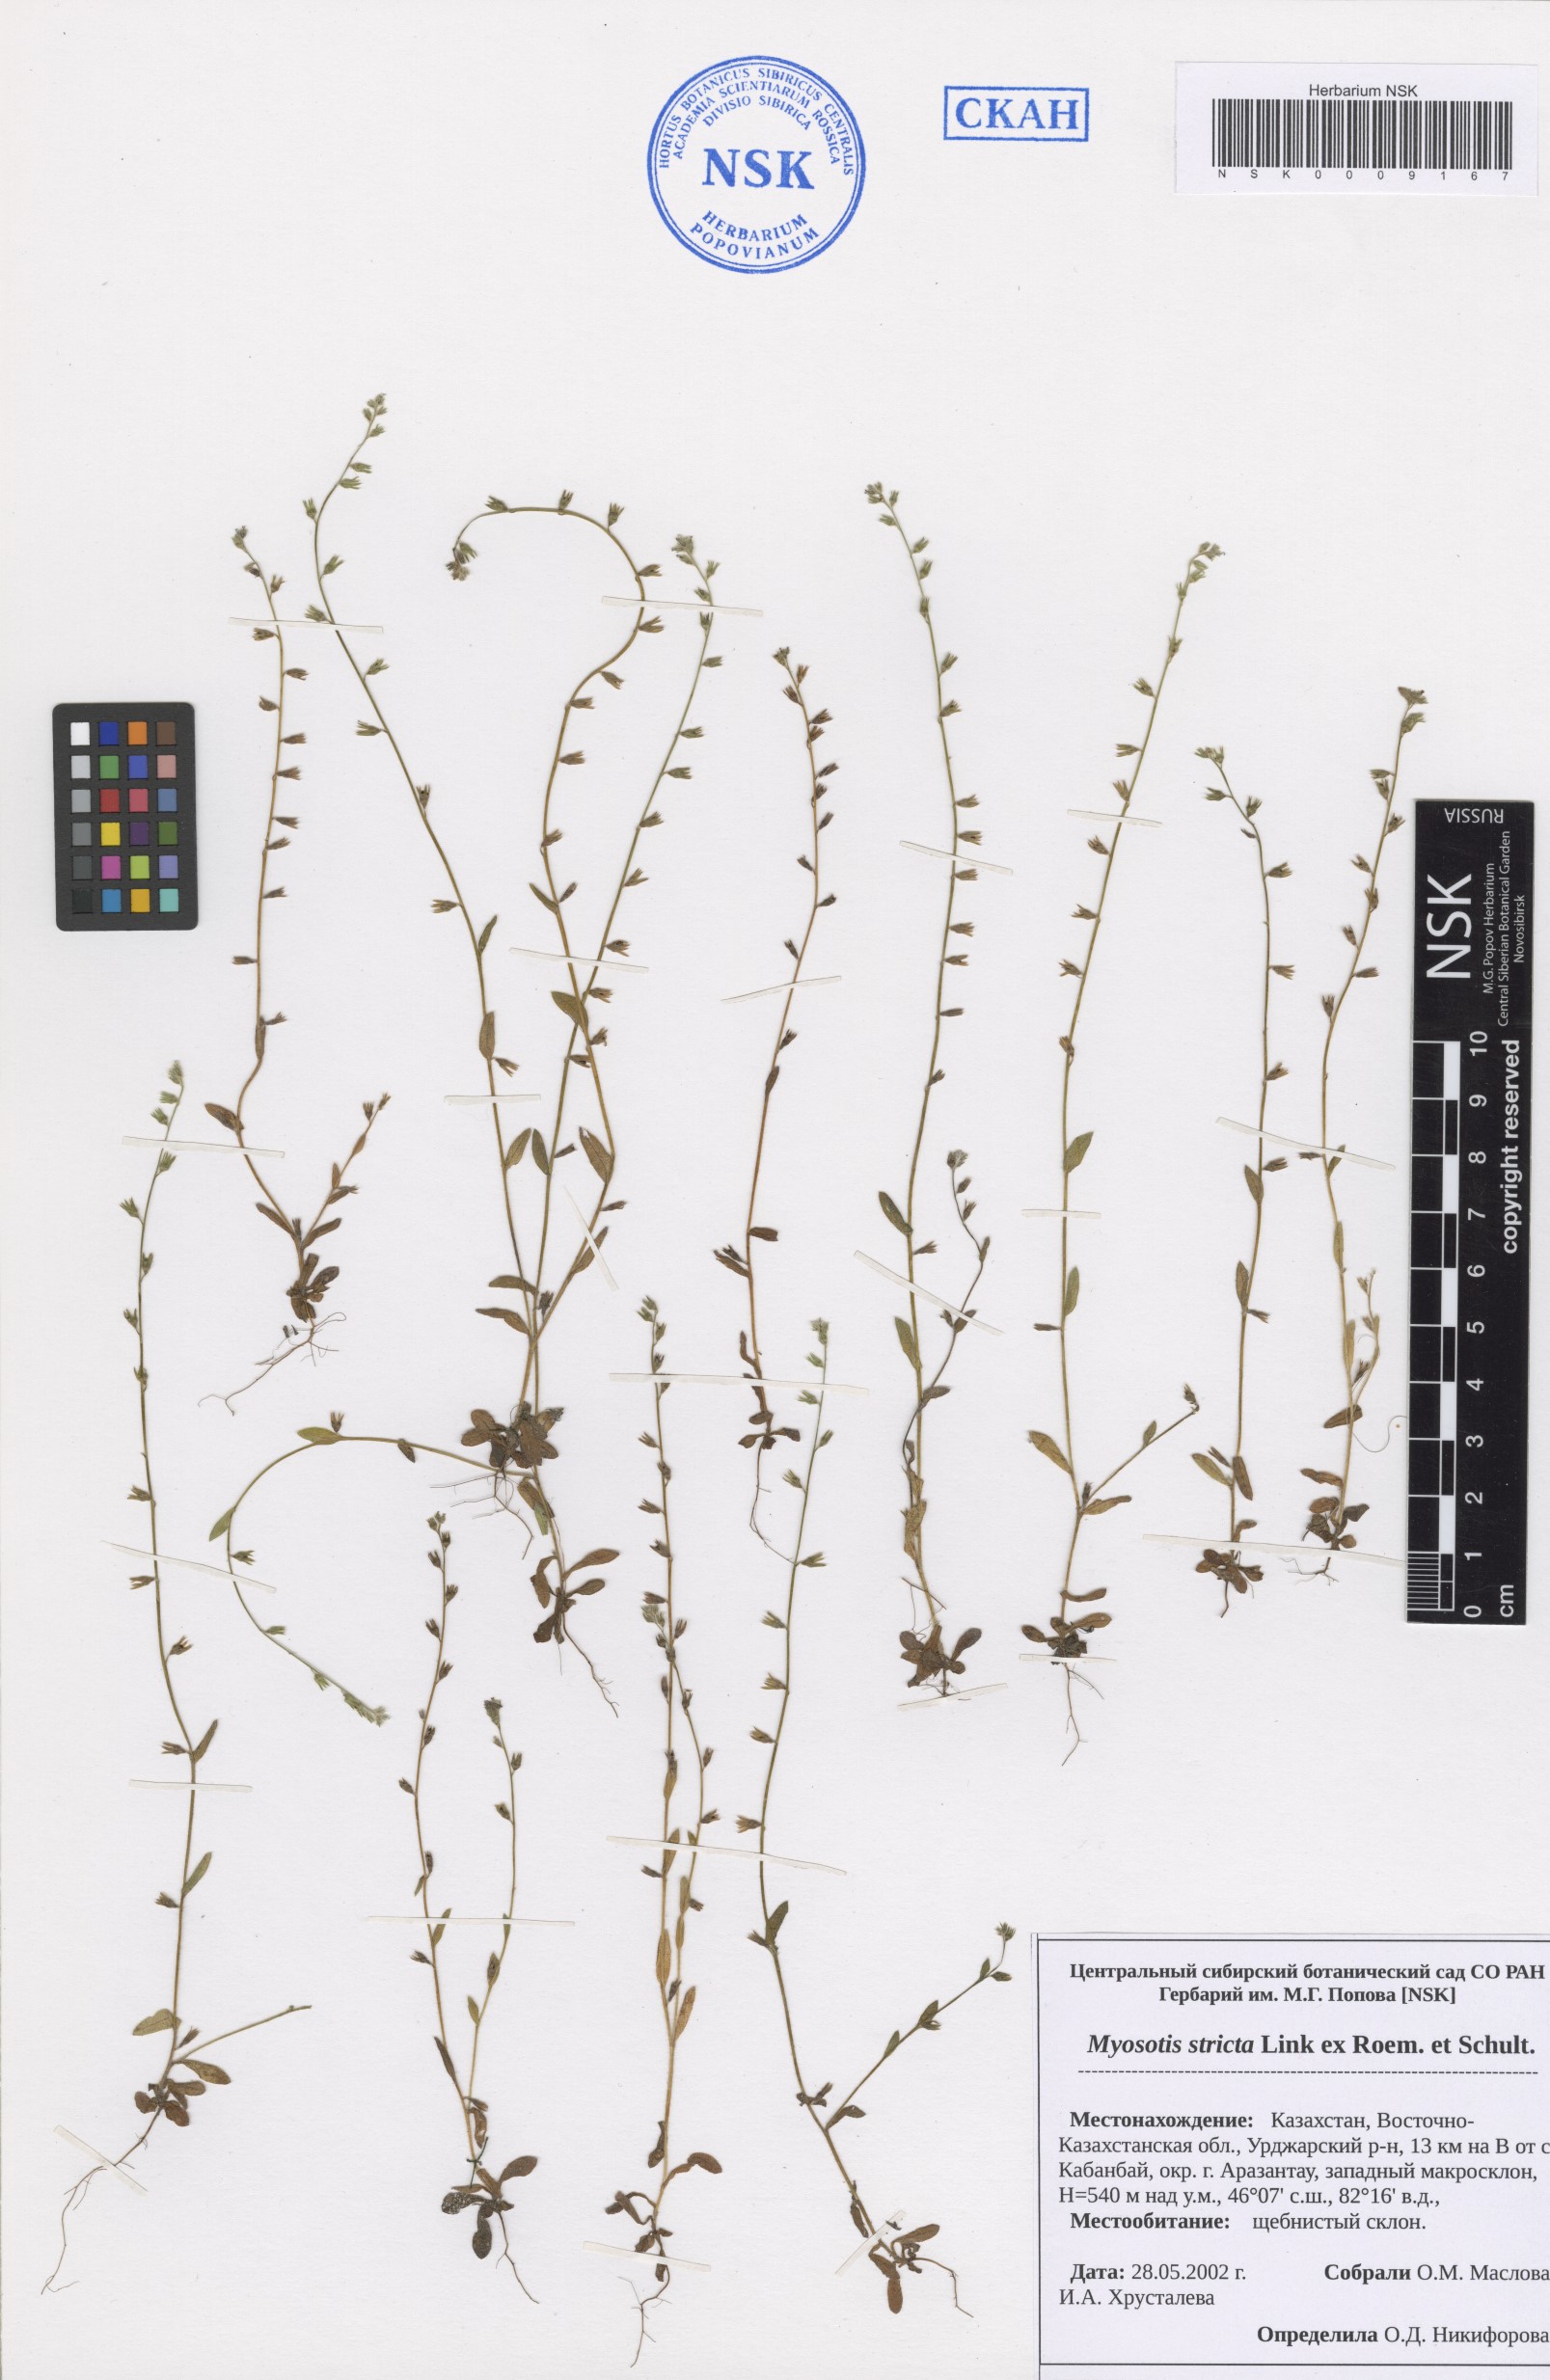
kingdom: Plantae
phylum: Tracheophyta
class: Magnoliopsida
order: Boraginales
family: Boraginaceae
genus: Myosotis
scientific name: Myosotis stricta
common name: Strict forget-me-not
